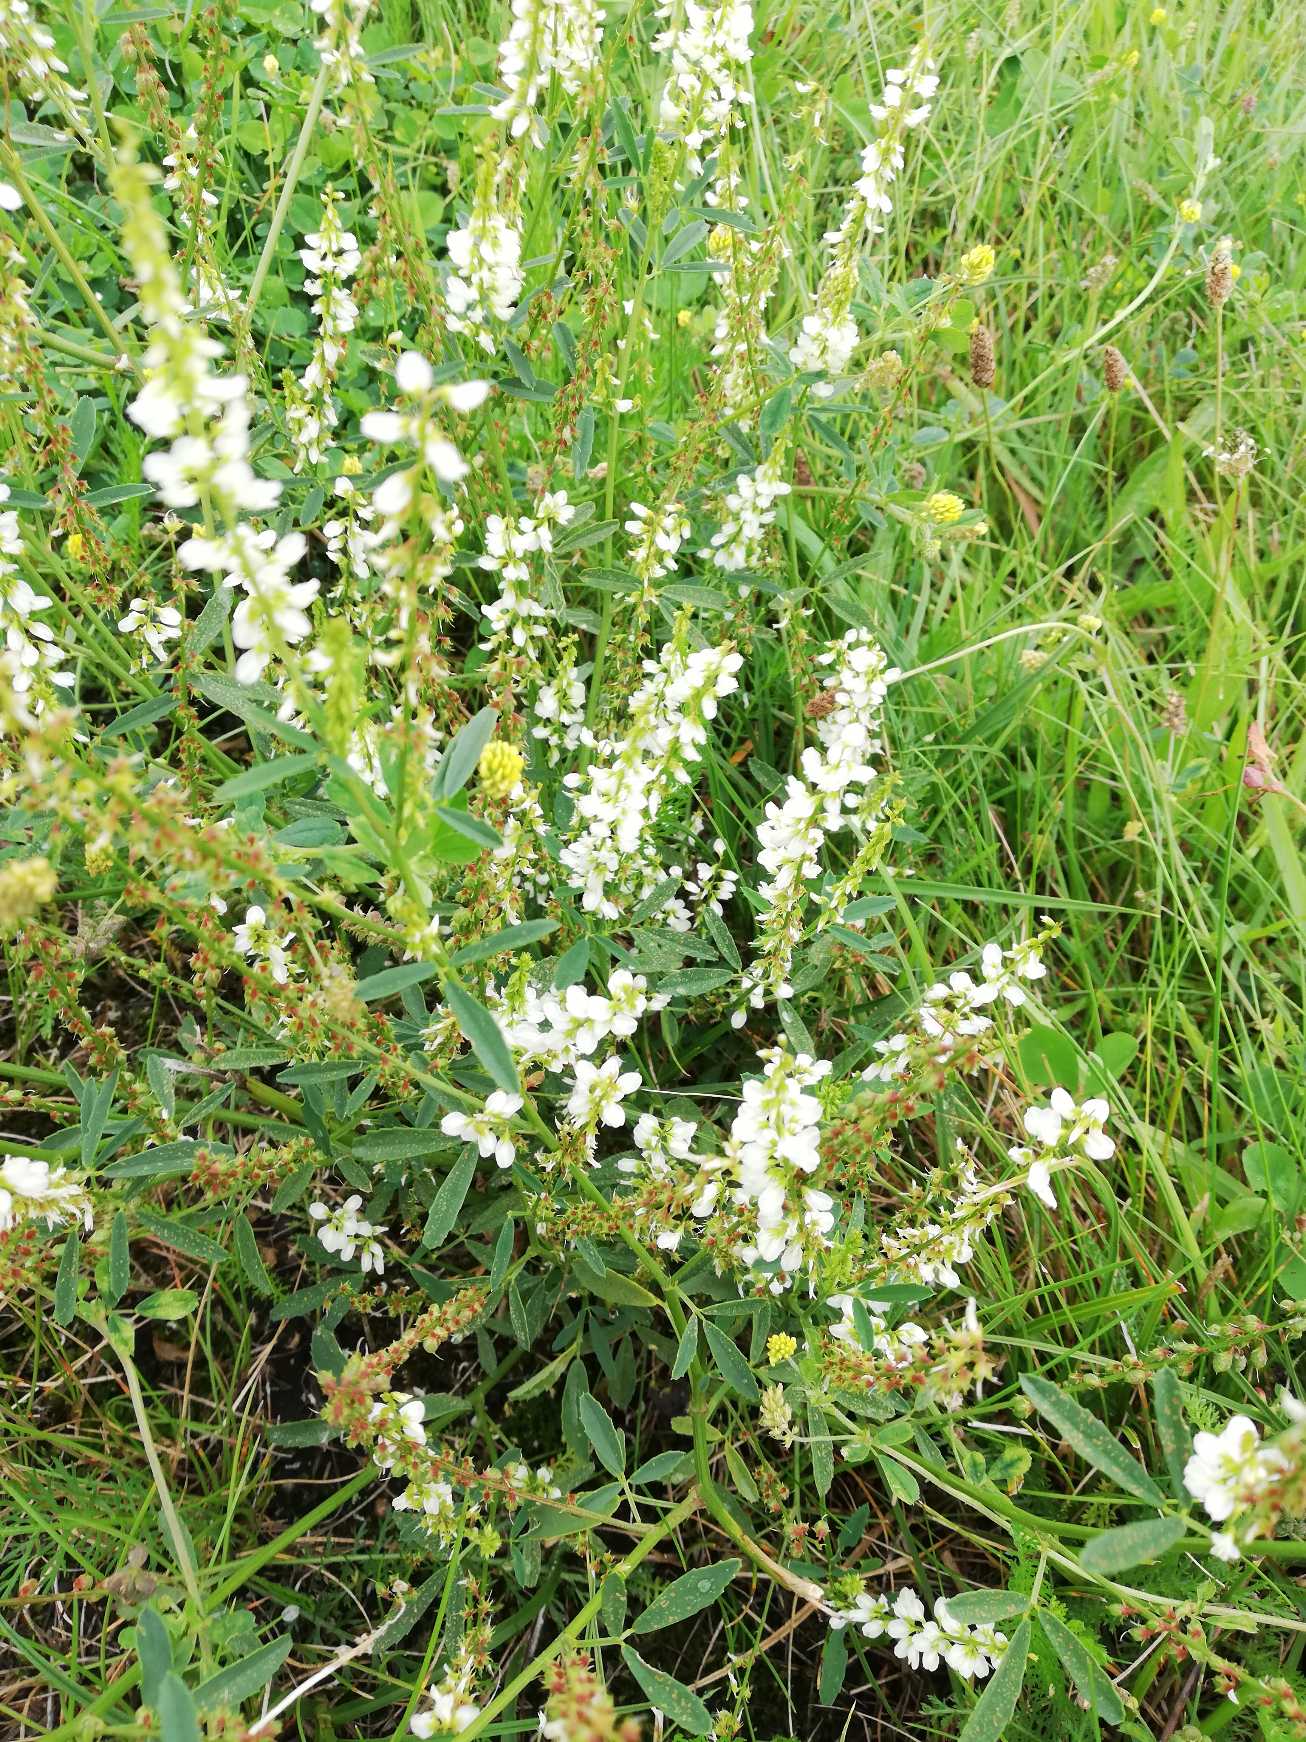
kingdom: Plantae
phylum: Tracheophyta
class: Magnoliopsida
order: Fabales
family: Fabaceae
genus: Melilotus
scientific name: Melilotus albus
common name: Hvid stenkløver
